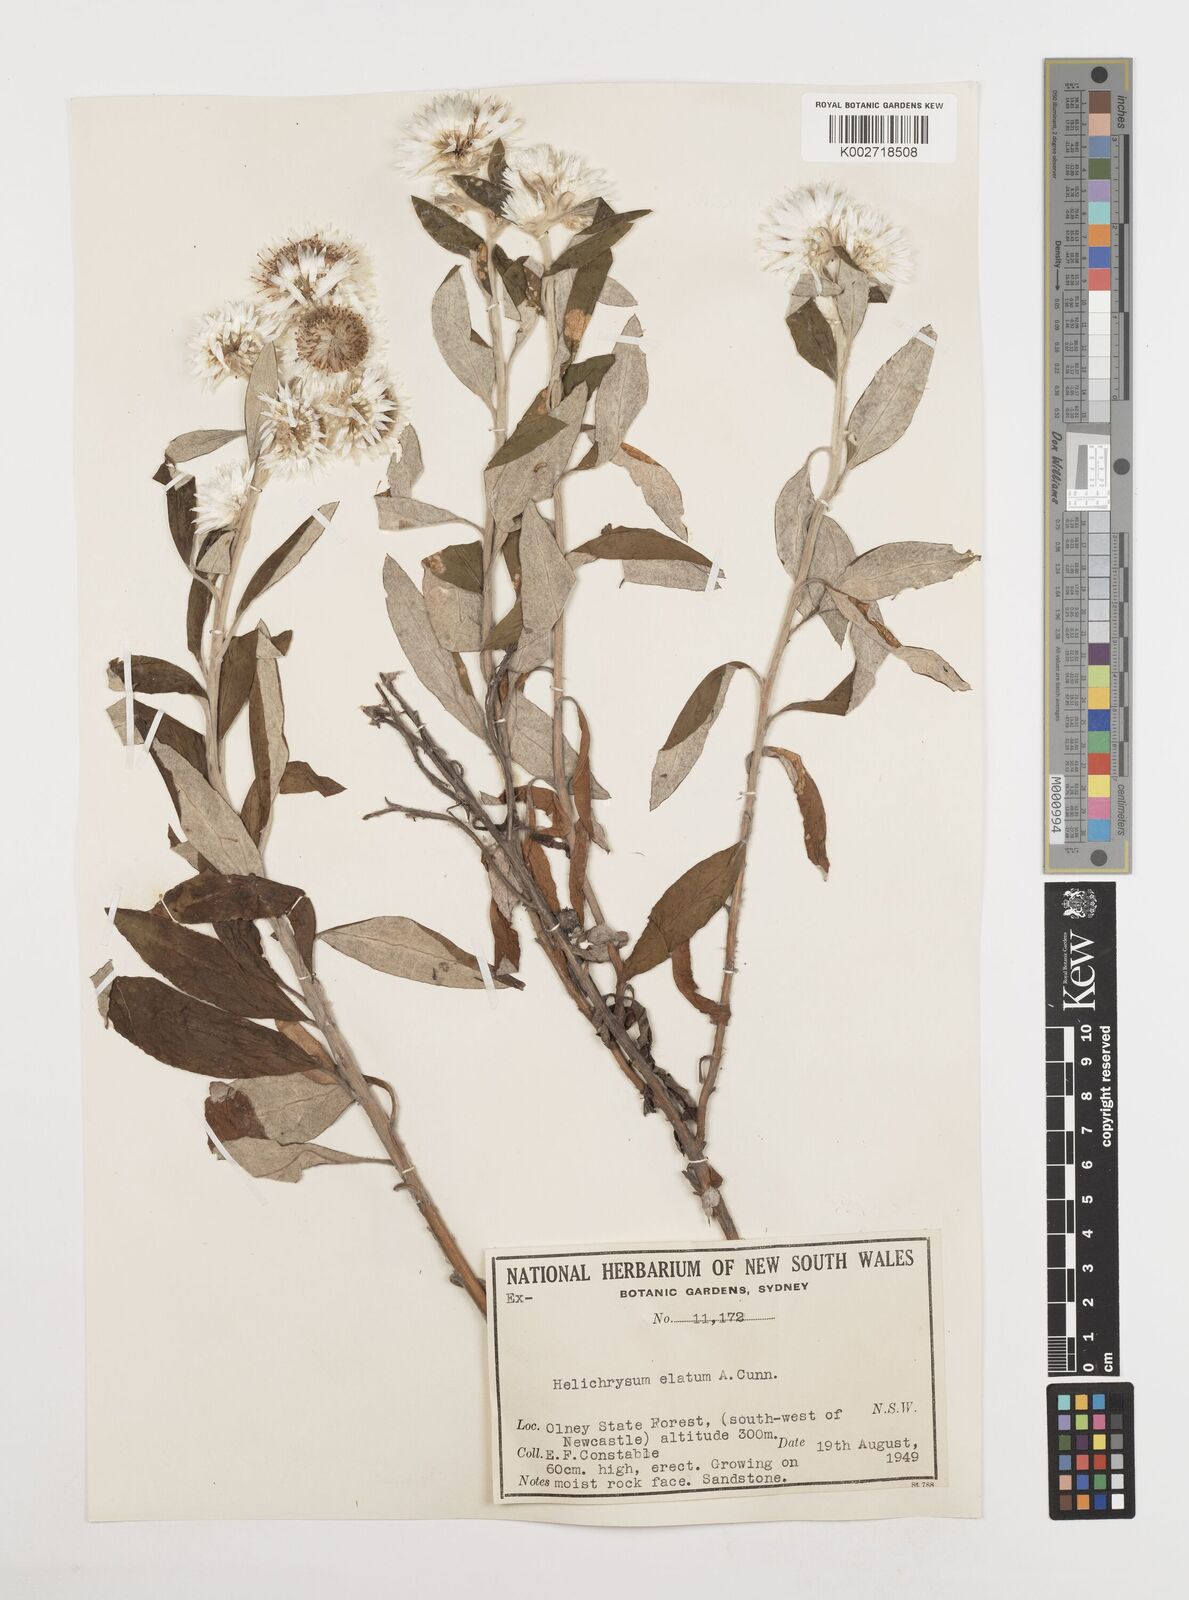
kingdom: Plantae
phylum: Tracheophyta
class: Magnoliopsida
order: Asterales
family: Asteraceae
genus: Leucozoma
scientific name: Leucozoma elatum
